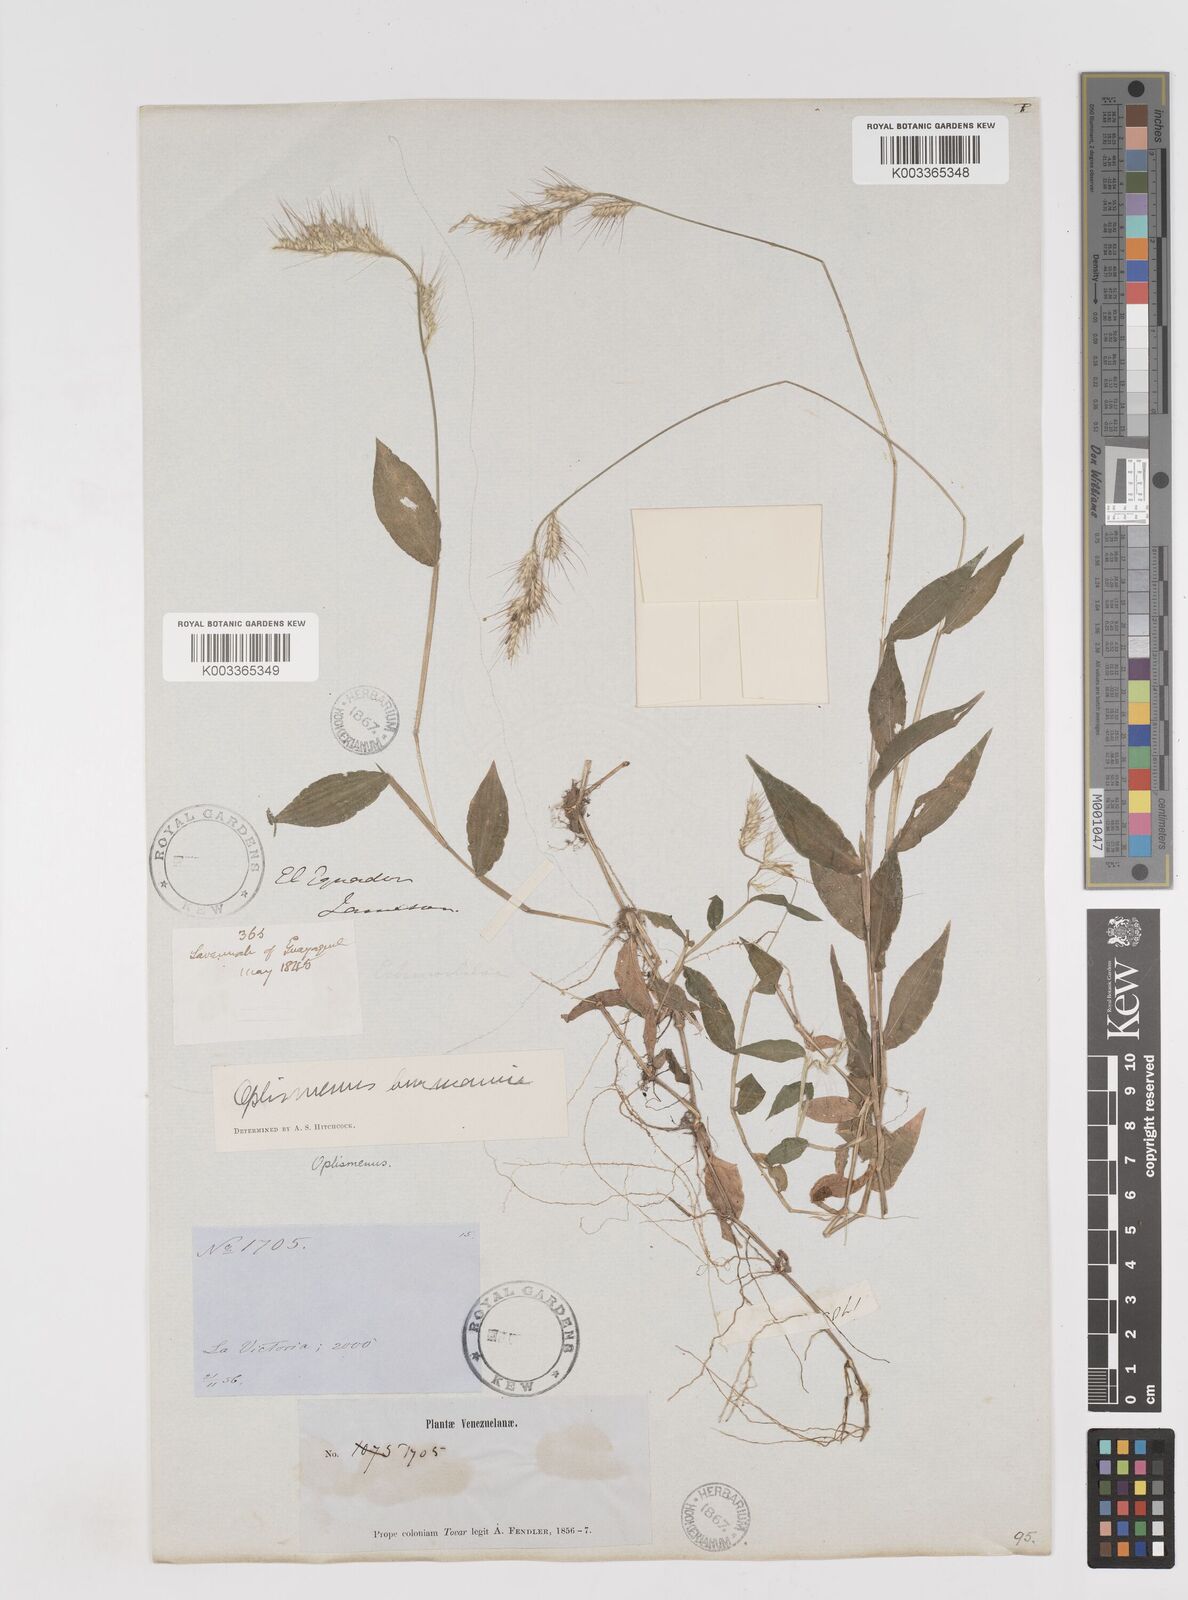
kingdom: Plantae
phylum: Tracheophyta
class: Liliopsida
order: Poales
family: Poaceae
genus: Oplismenus
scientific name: Oplismenus burmanni
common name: Burmann's basketgrass
